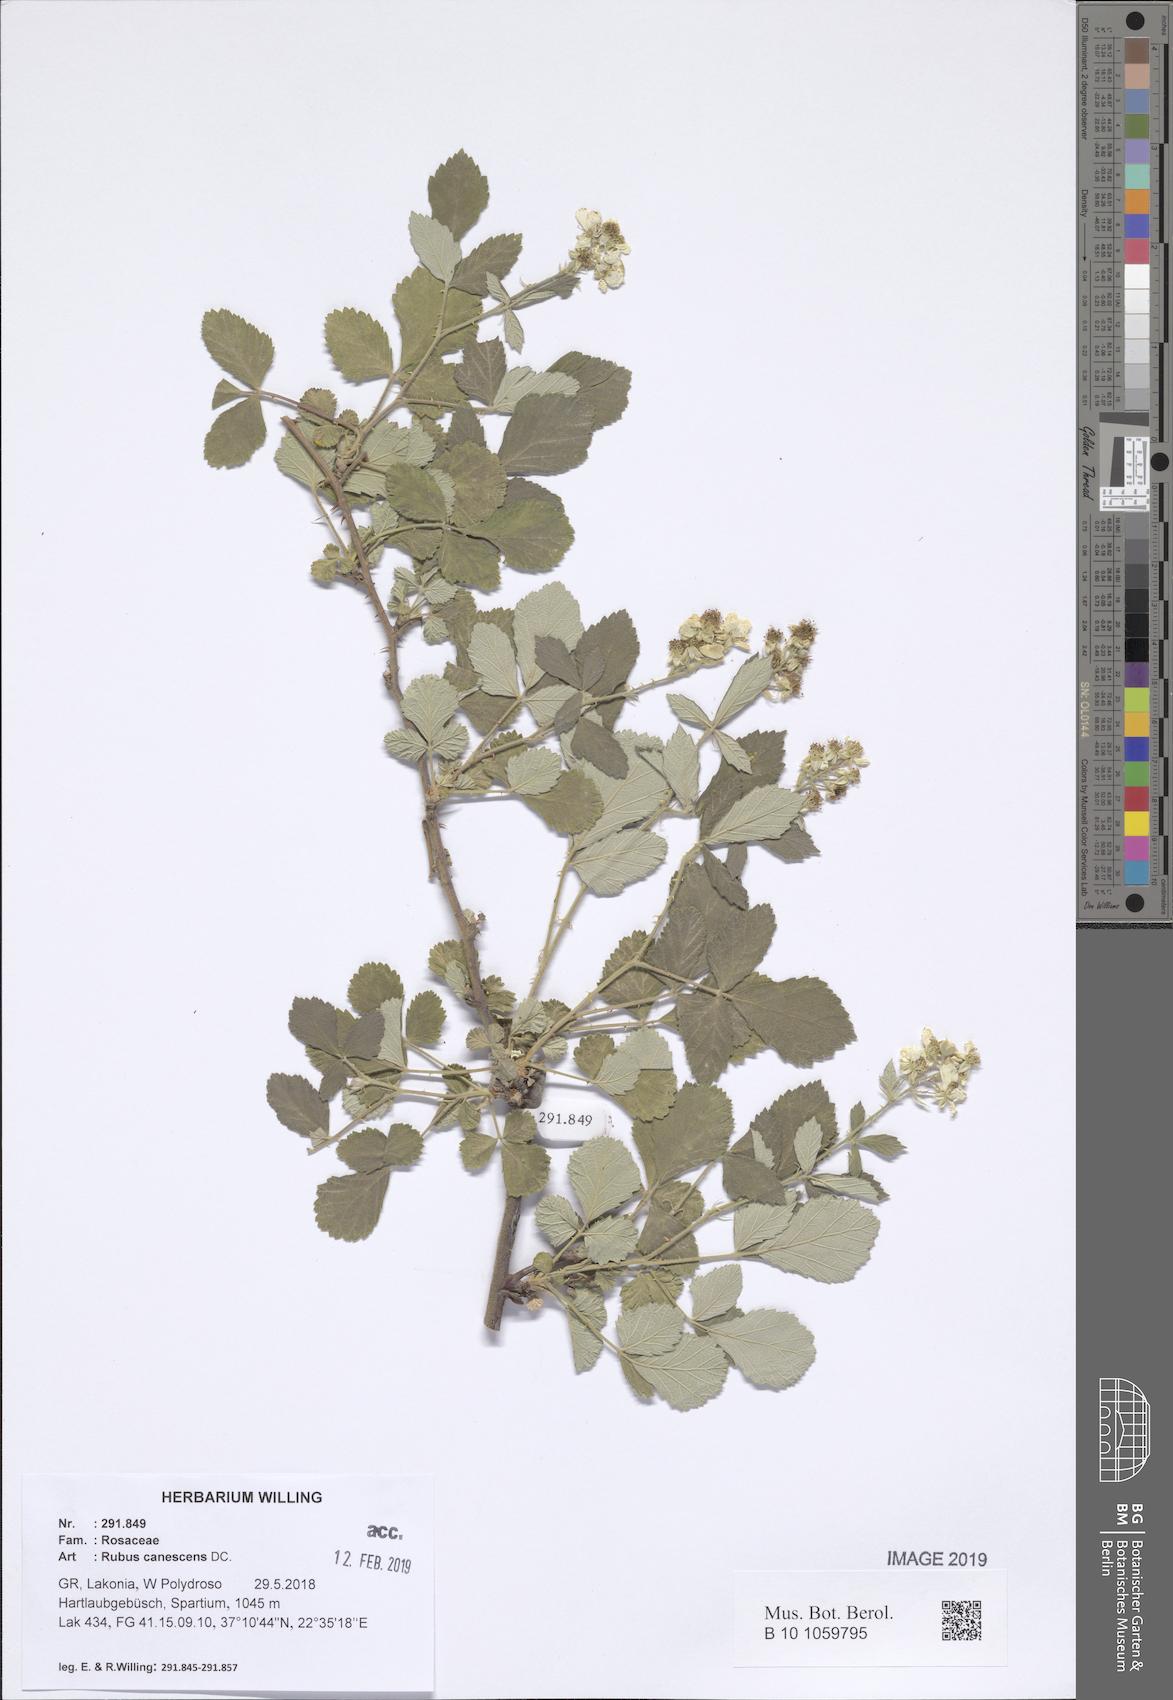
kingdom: Plantae
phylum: Tracheophyta
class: Magnoliopsida
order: Rosales
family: Rosaceae
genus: Rubus
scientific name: Rubus canescens
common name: Wooly blackberry
